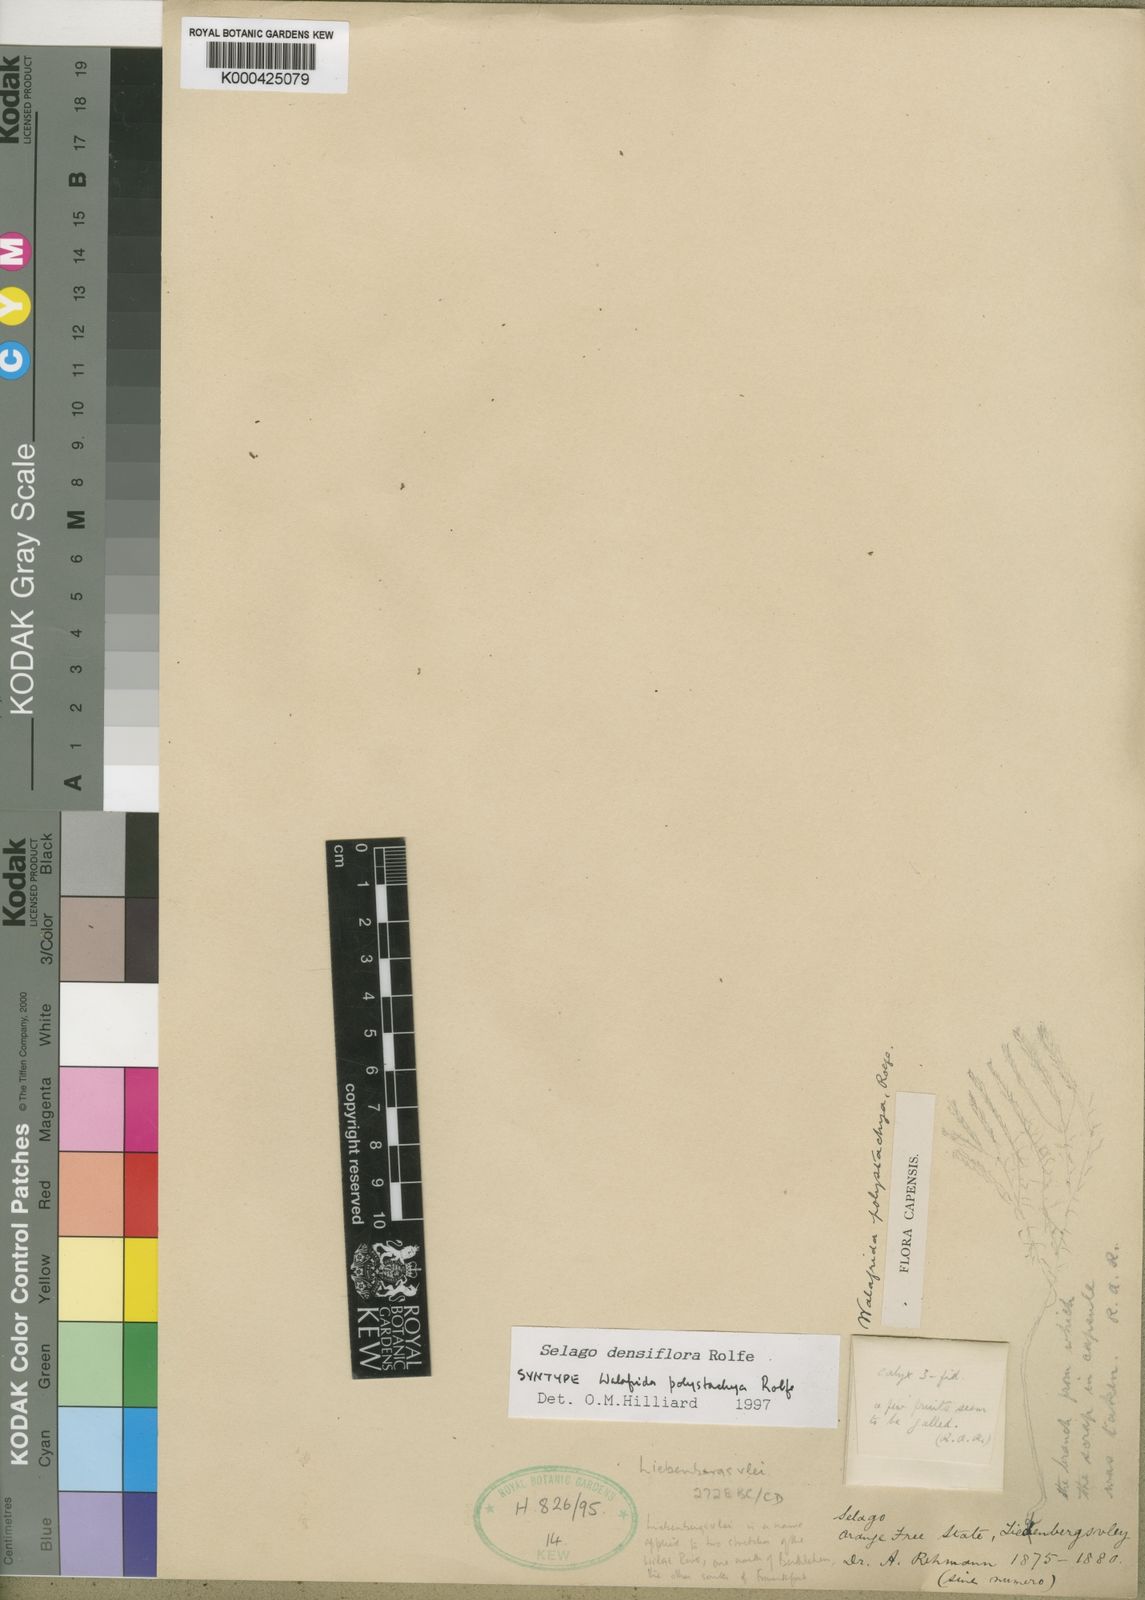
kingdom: Plantae
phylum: Tracheophyta
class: Magnoliopsida
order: Lamiales
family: Scrophulariaceae
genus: Selago
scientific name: Selago multispicata
